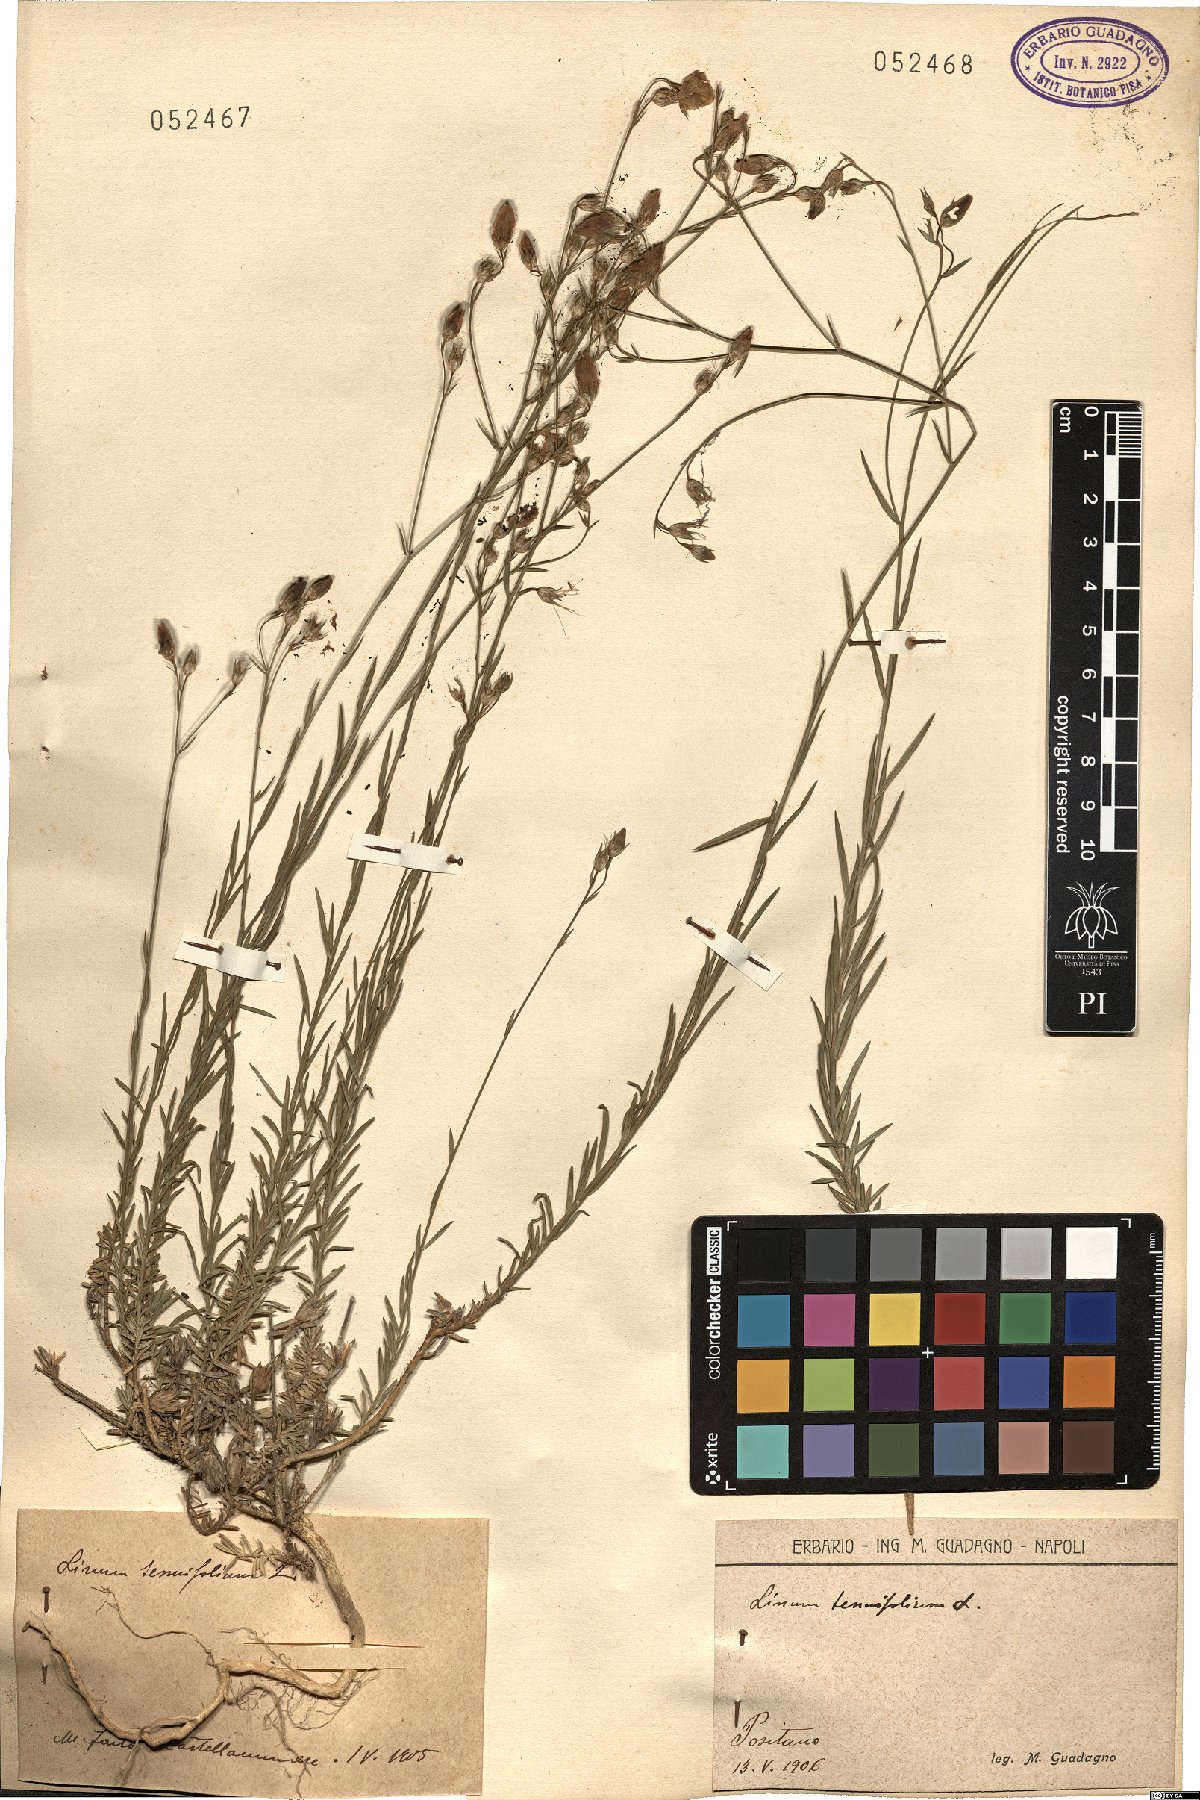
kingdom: Plantae
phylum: Tracheophyta
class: Magnoliopsida
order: Malpighiales
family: Linaceae
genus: Linum
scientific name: Linum tenuifolium
